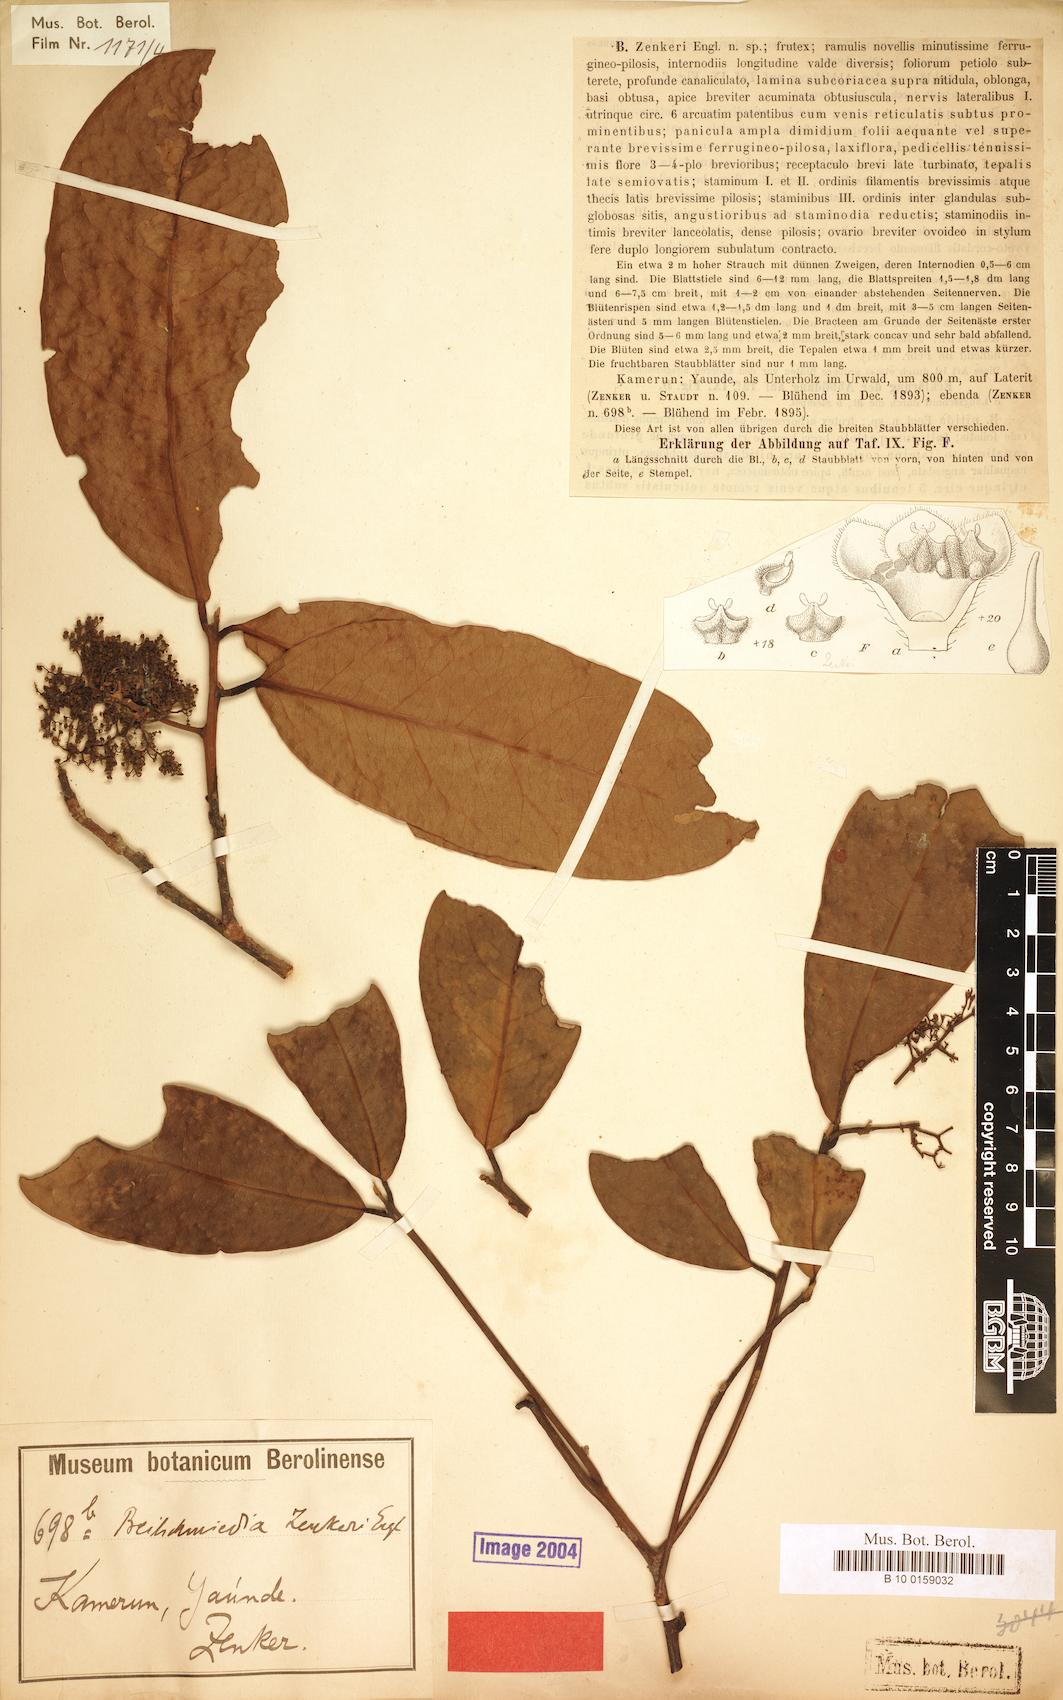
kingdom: Plantae
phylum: Tracheophyta
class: Magnoliopsida
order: Laurales
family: Lauraceae
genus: Beilschmiedia
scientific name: Beilschmiedia zenkeri
